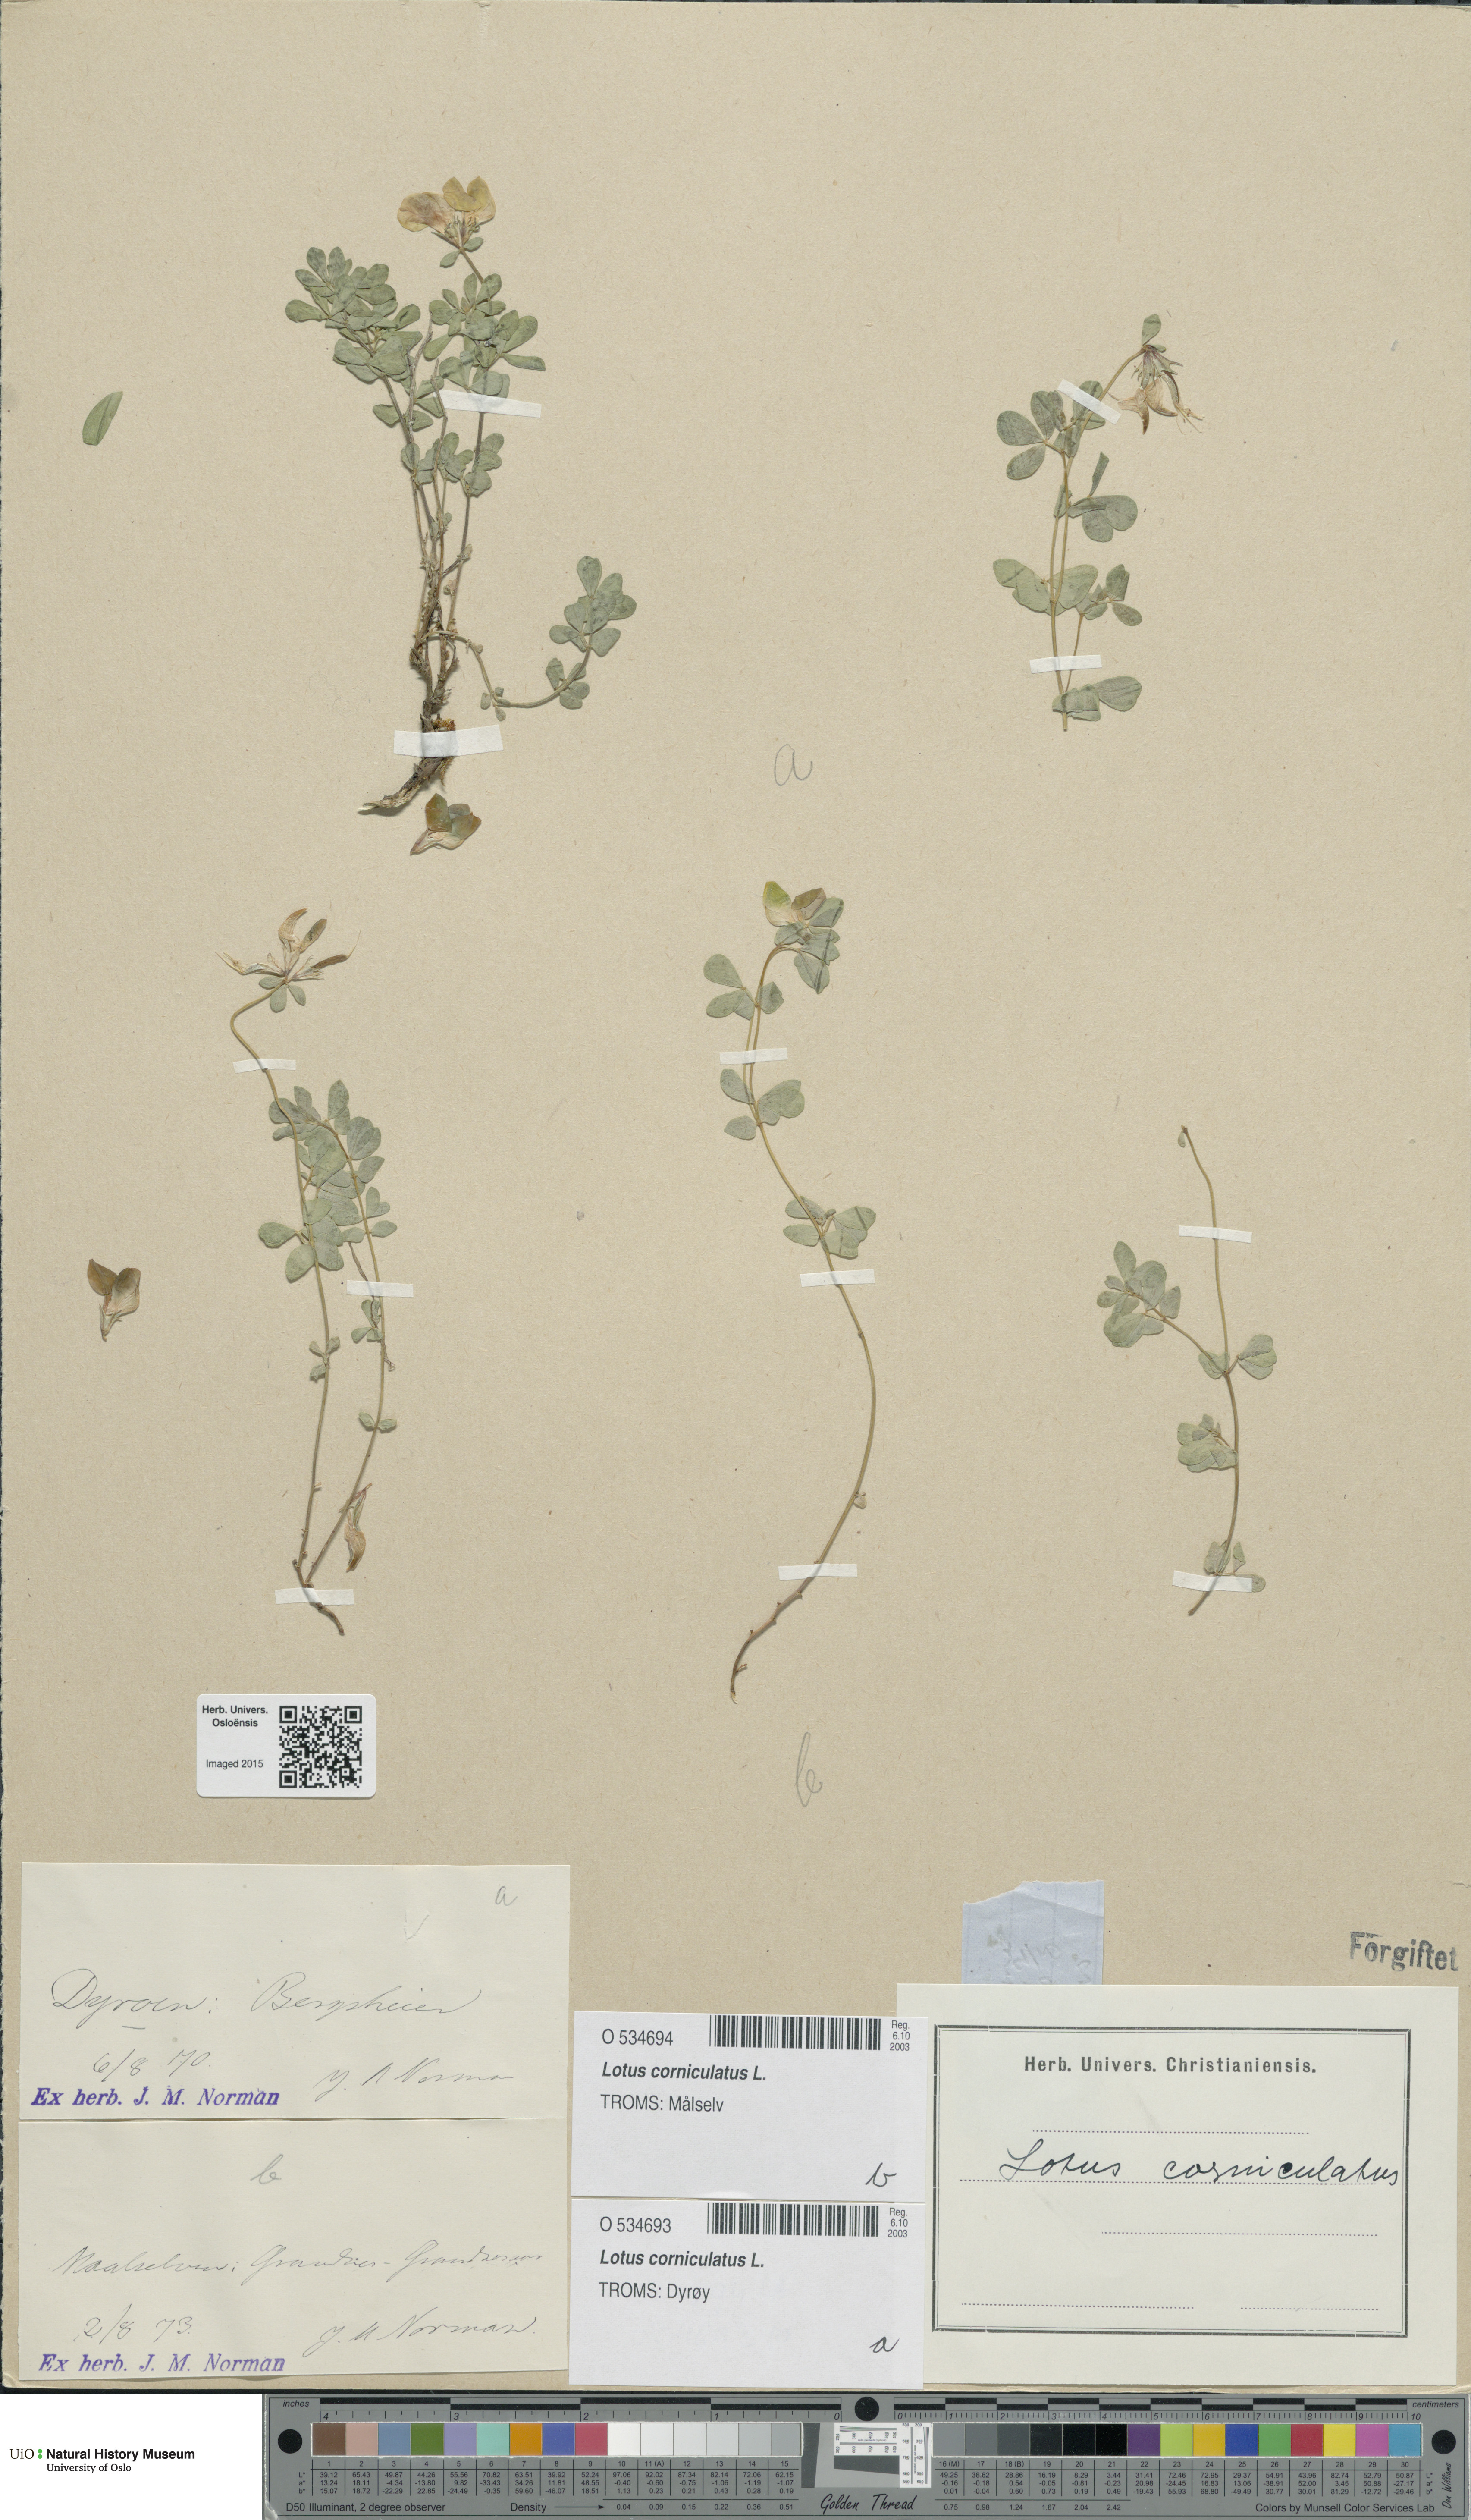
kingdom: Plantae
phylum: Tracheophyta
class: Magnoliopsida
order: Fabales
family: Fabaceae
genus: Lotus
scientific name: Lotus corniculatus
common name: Common bird's-foot-trefoil
